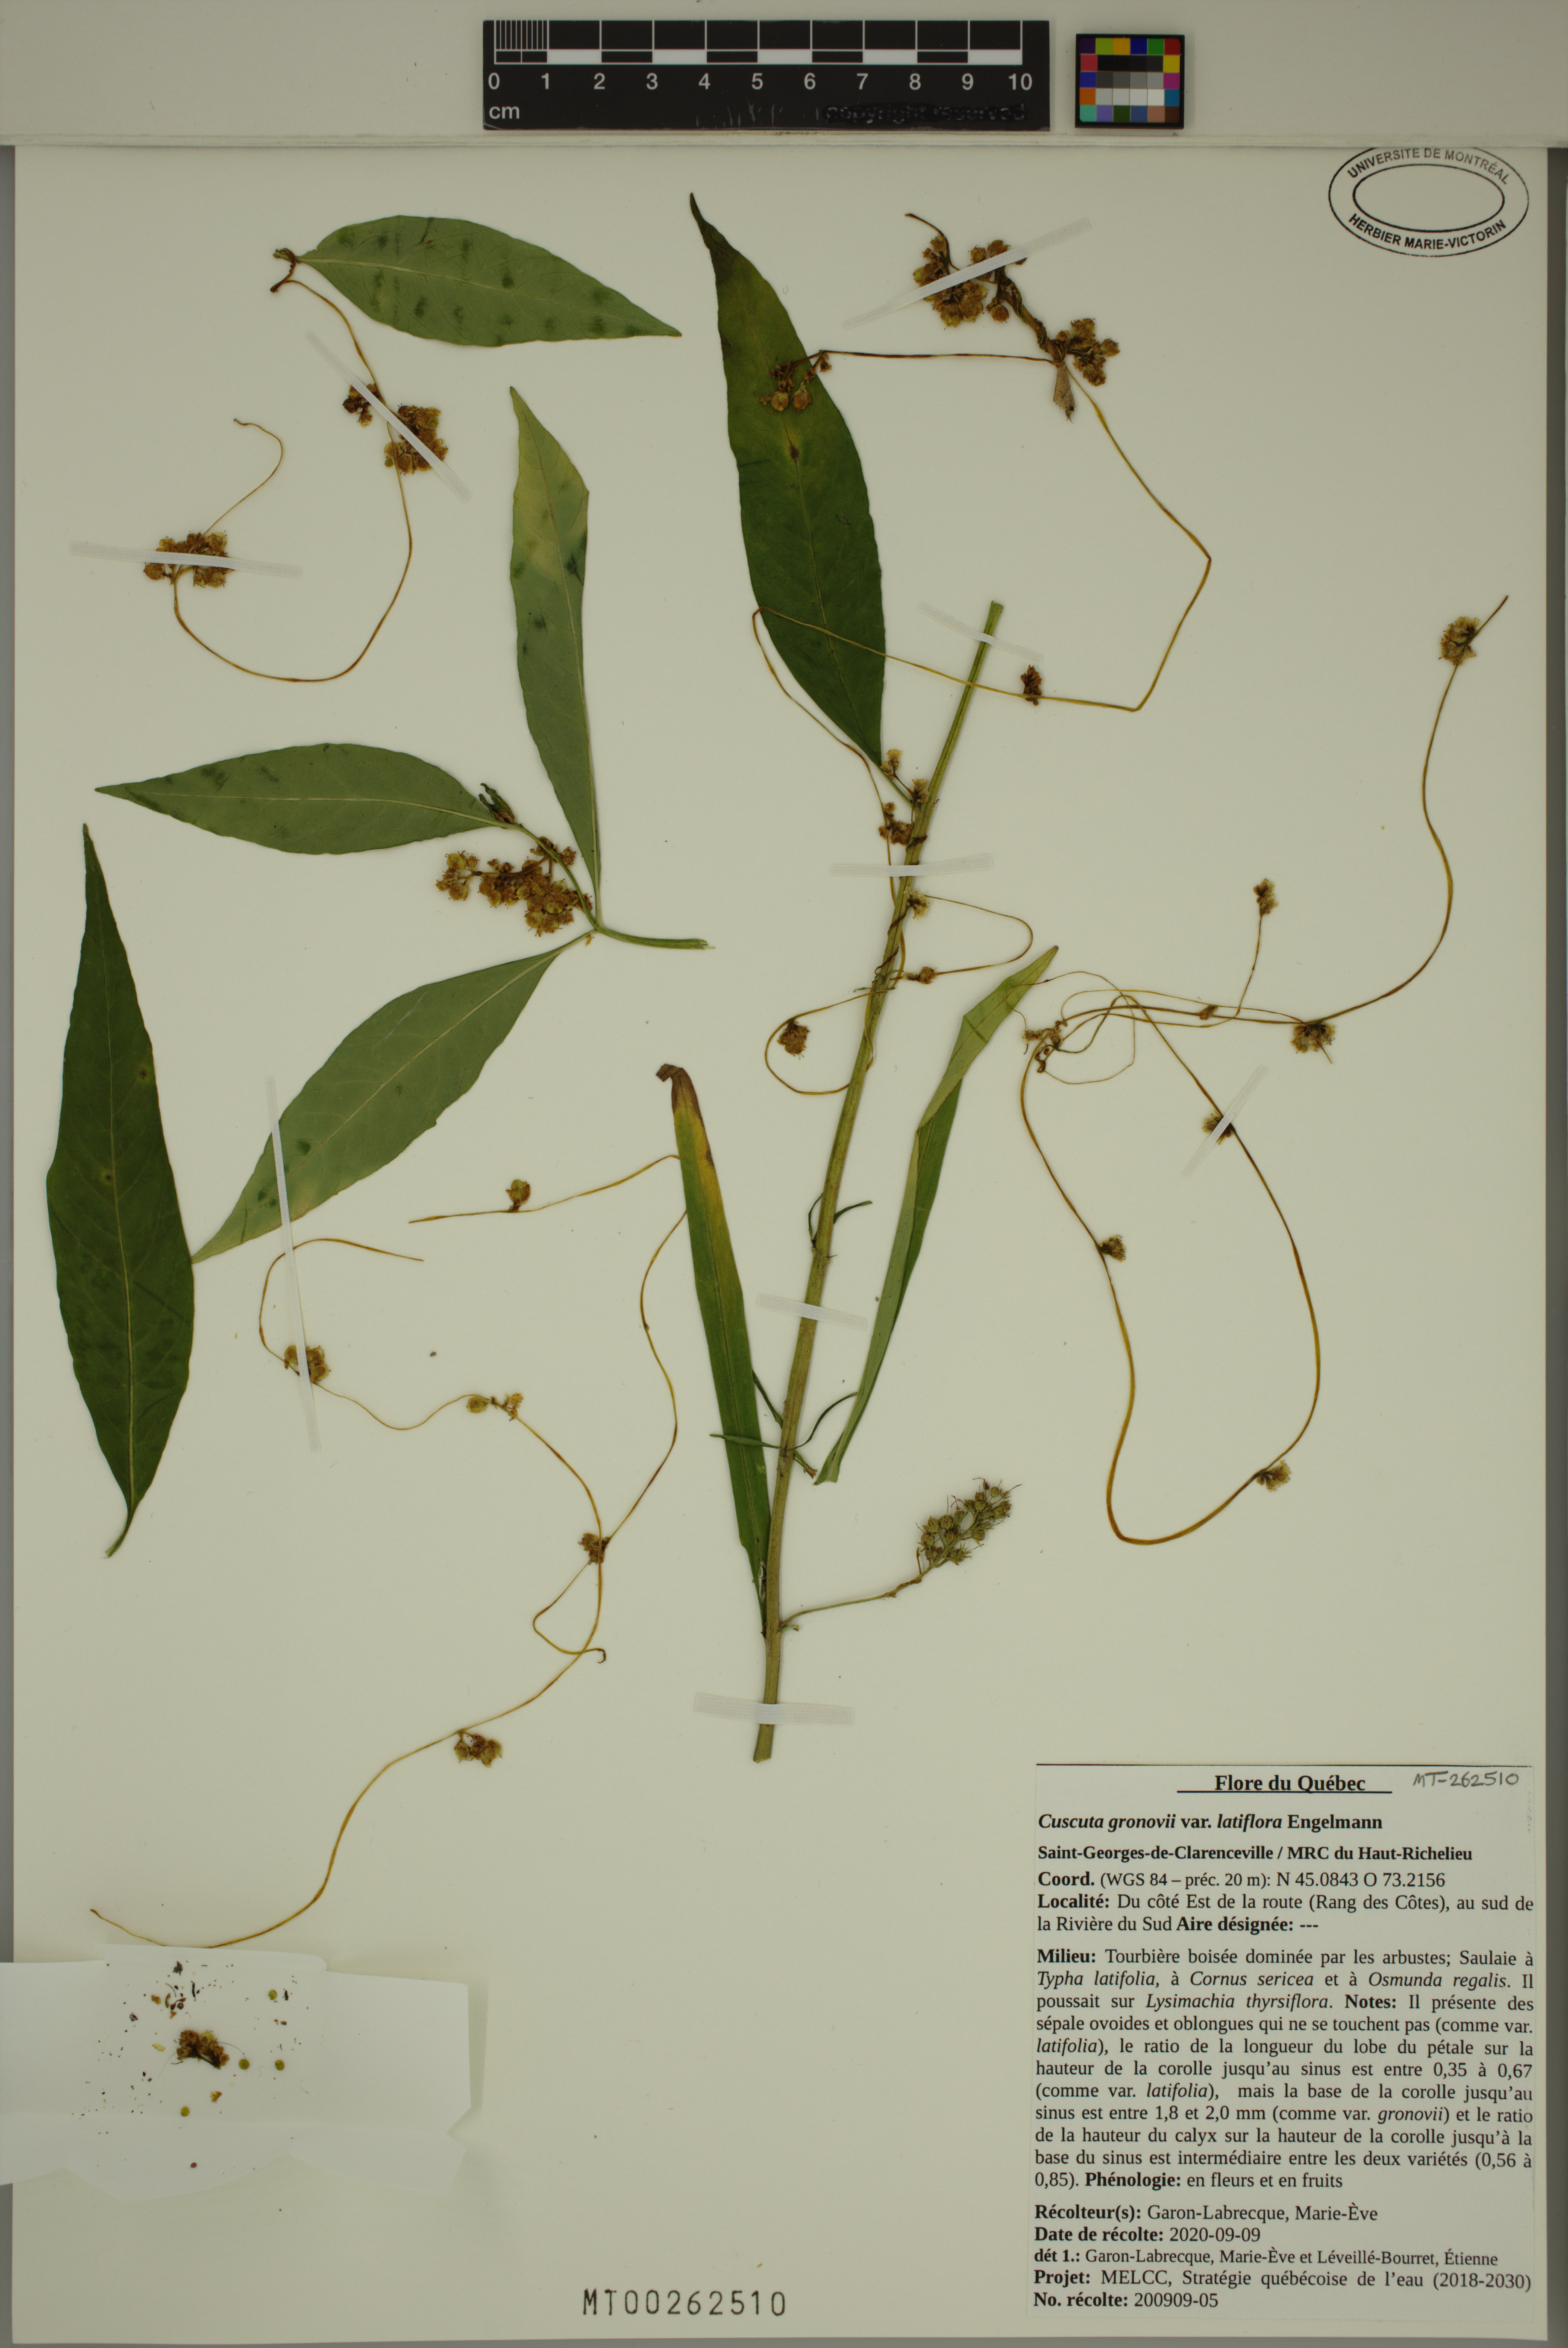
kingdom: Plantae
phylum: Tracheophyta
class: Magnoliopsida
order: Solanales
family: Convolvulaceae
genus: Cuscuta
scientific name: Cuscuta gronovii
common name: Common dodder
